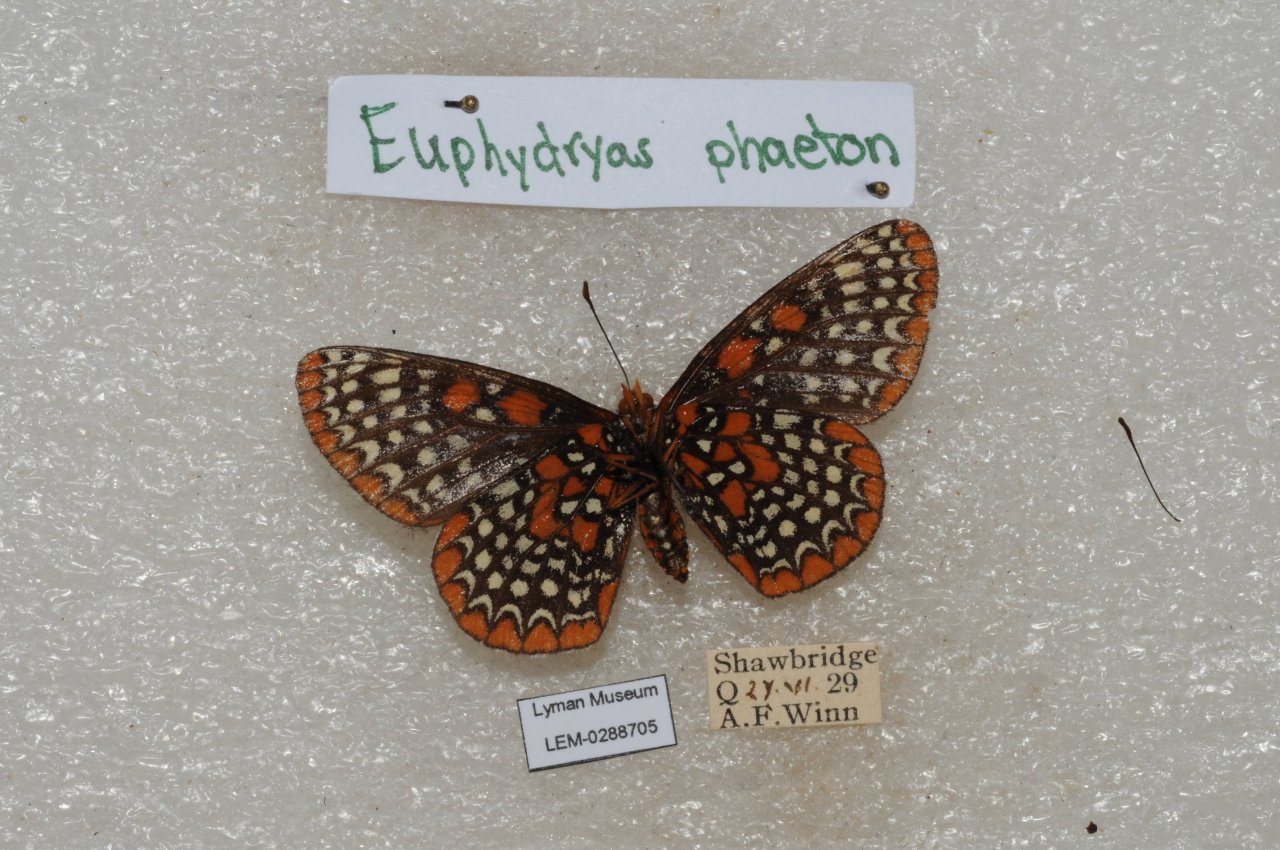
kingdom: Animalia
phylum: Arthropoda
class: Insecta
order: Lepidoptera
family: Nymphalidae
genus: Euphydryas
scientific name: Euphydryas phaeton
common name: Baltimore Checkerspot
